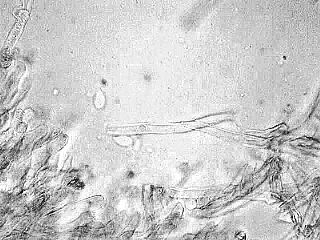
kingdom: Fungi
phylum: Basidiomycota
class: Agaricomycetes
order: Agaricales
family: Physalacriaceae
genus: Cylindrobasidium
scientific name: Cylindrobasidium evolvens
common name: sprækkehinde
